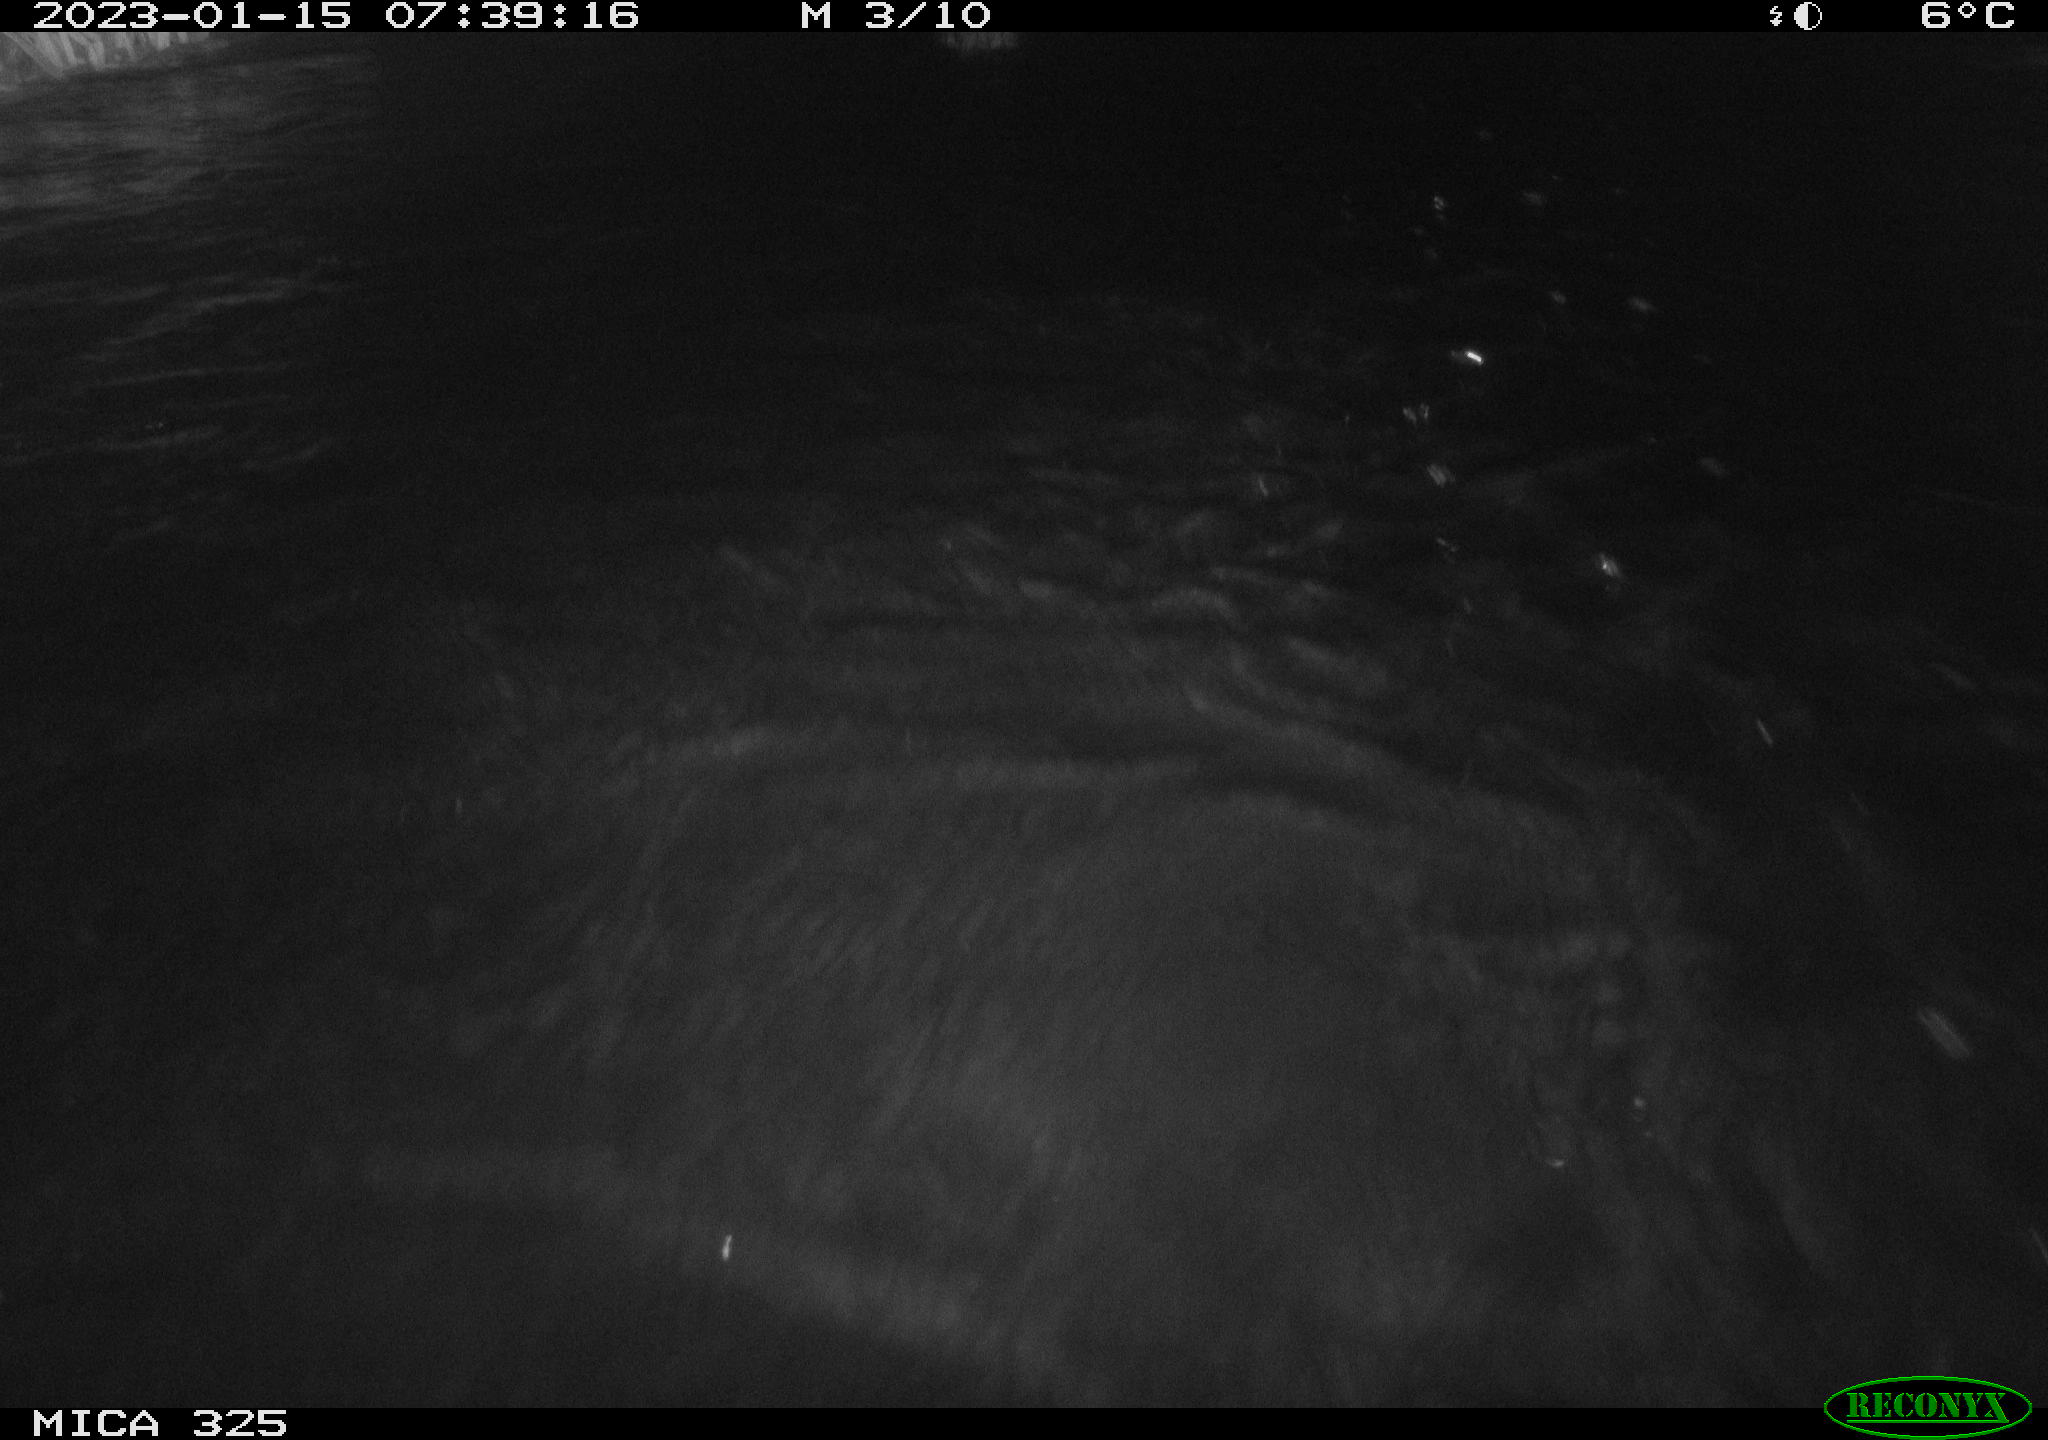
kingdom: Animalia
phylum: Chordata
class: Mammalia
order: Rodentia
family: Myocastoridae
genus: Myocastor
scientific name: Myocastor coypus
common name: Coypu
